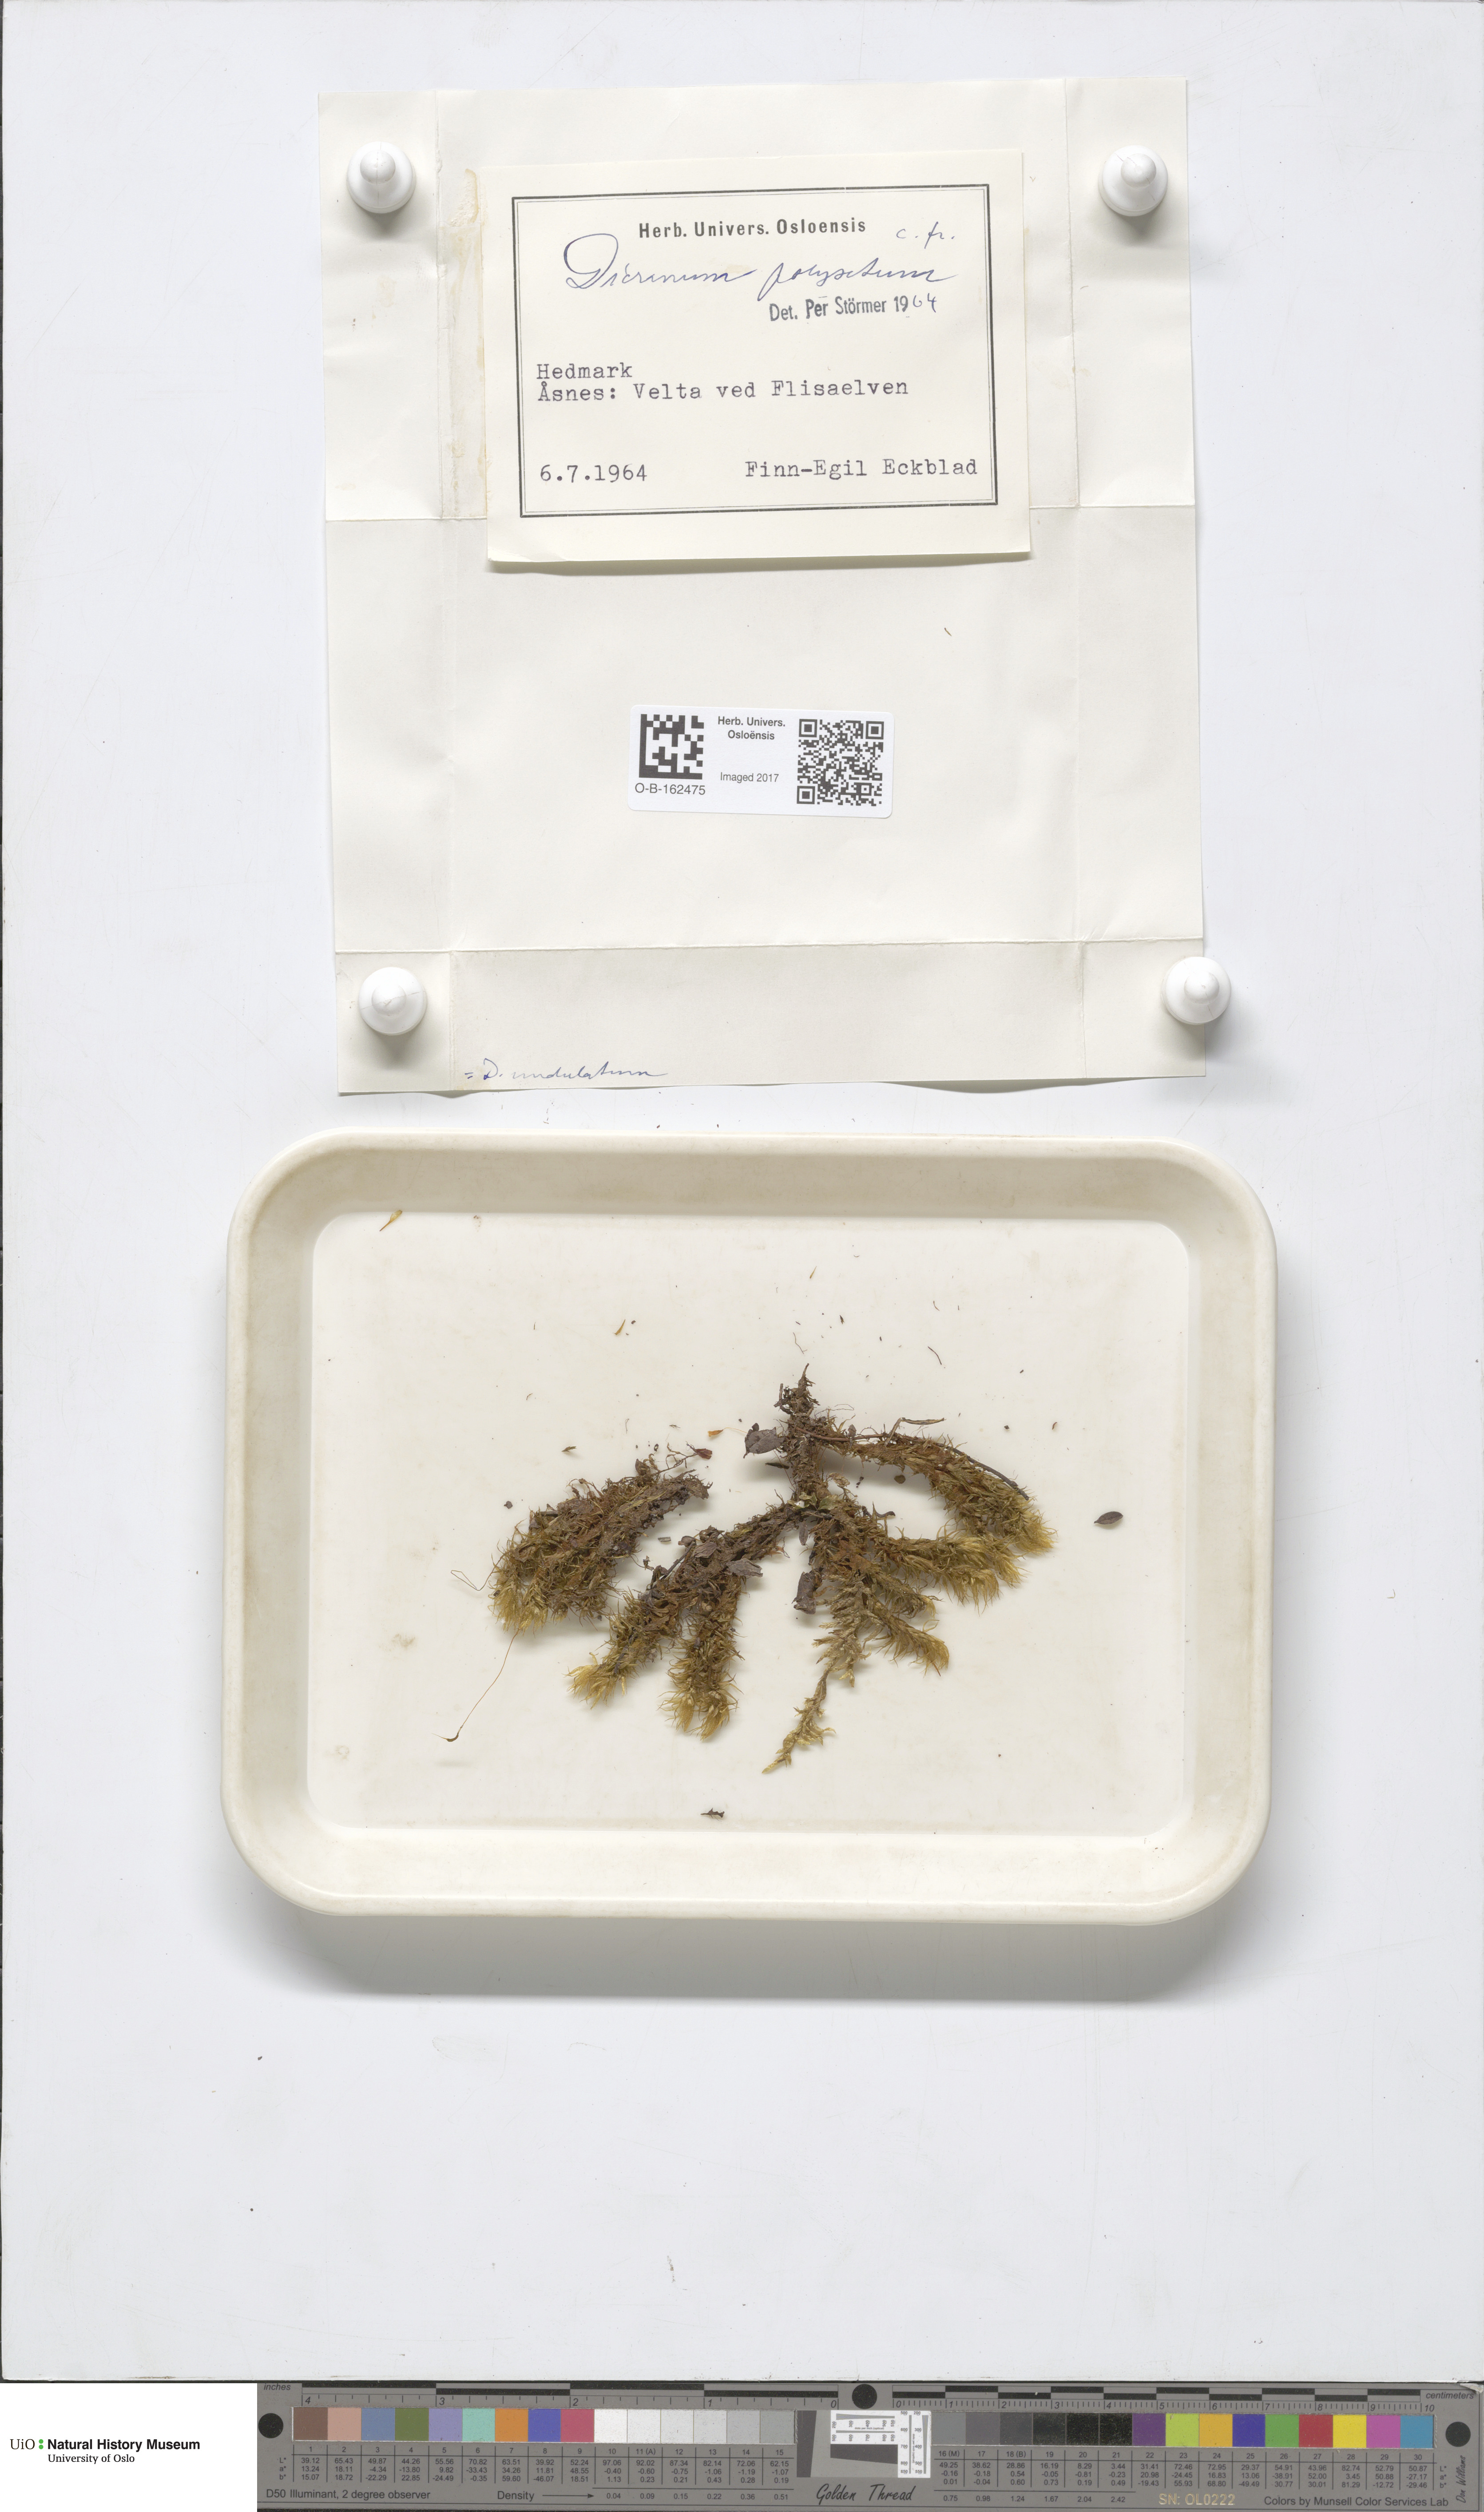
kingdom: Plantae
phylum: Bryophyta
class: Bryopsida
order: Dicranales
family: Dicranaceae
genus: Dicranum
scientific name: Dicranum polysetum
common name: Rugose fork-moss
